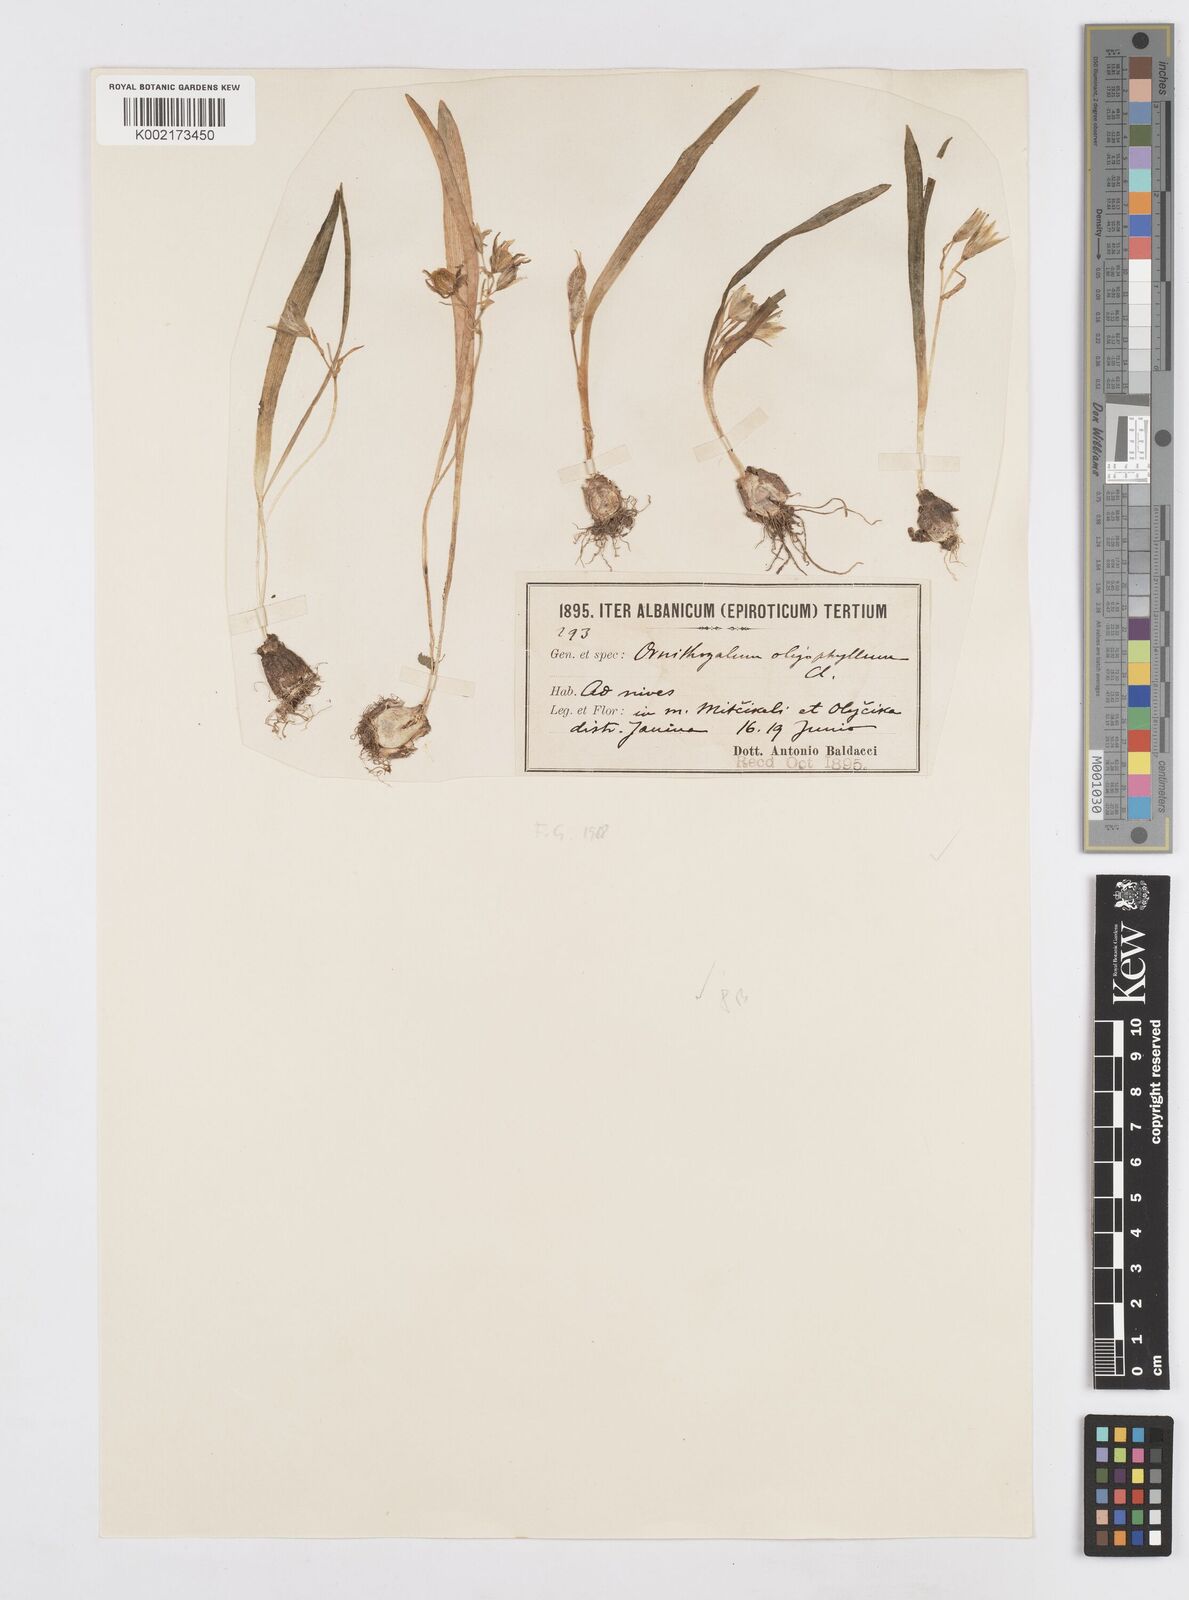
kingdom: Plantae
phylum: Tracheophyta
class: Liliopsida
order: Asparagales
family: Asparagaceae
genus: Ornithogalum
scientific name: Ornithogalum oligophyllum
